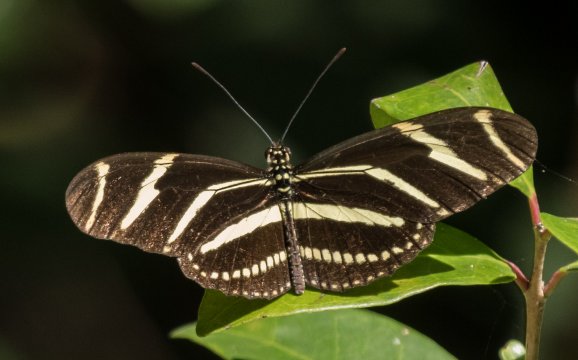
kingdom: Animalia
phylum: Arthropoda
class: Insecta
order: Lepidoptera
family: Nymphalidae
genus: Heliconius
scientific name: Heliconius charithonia
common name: Zebra Longwing
